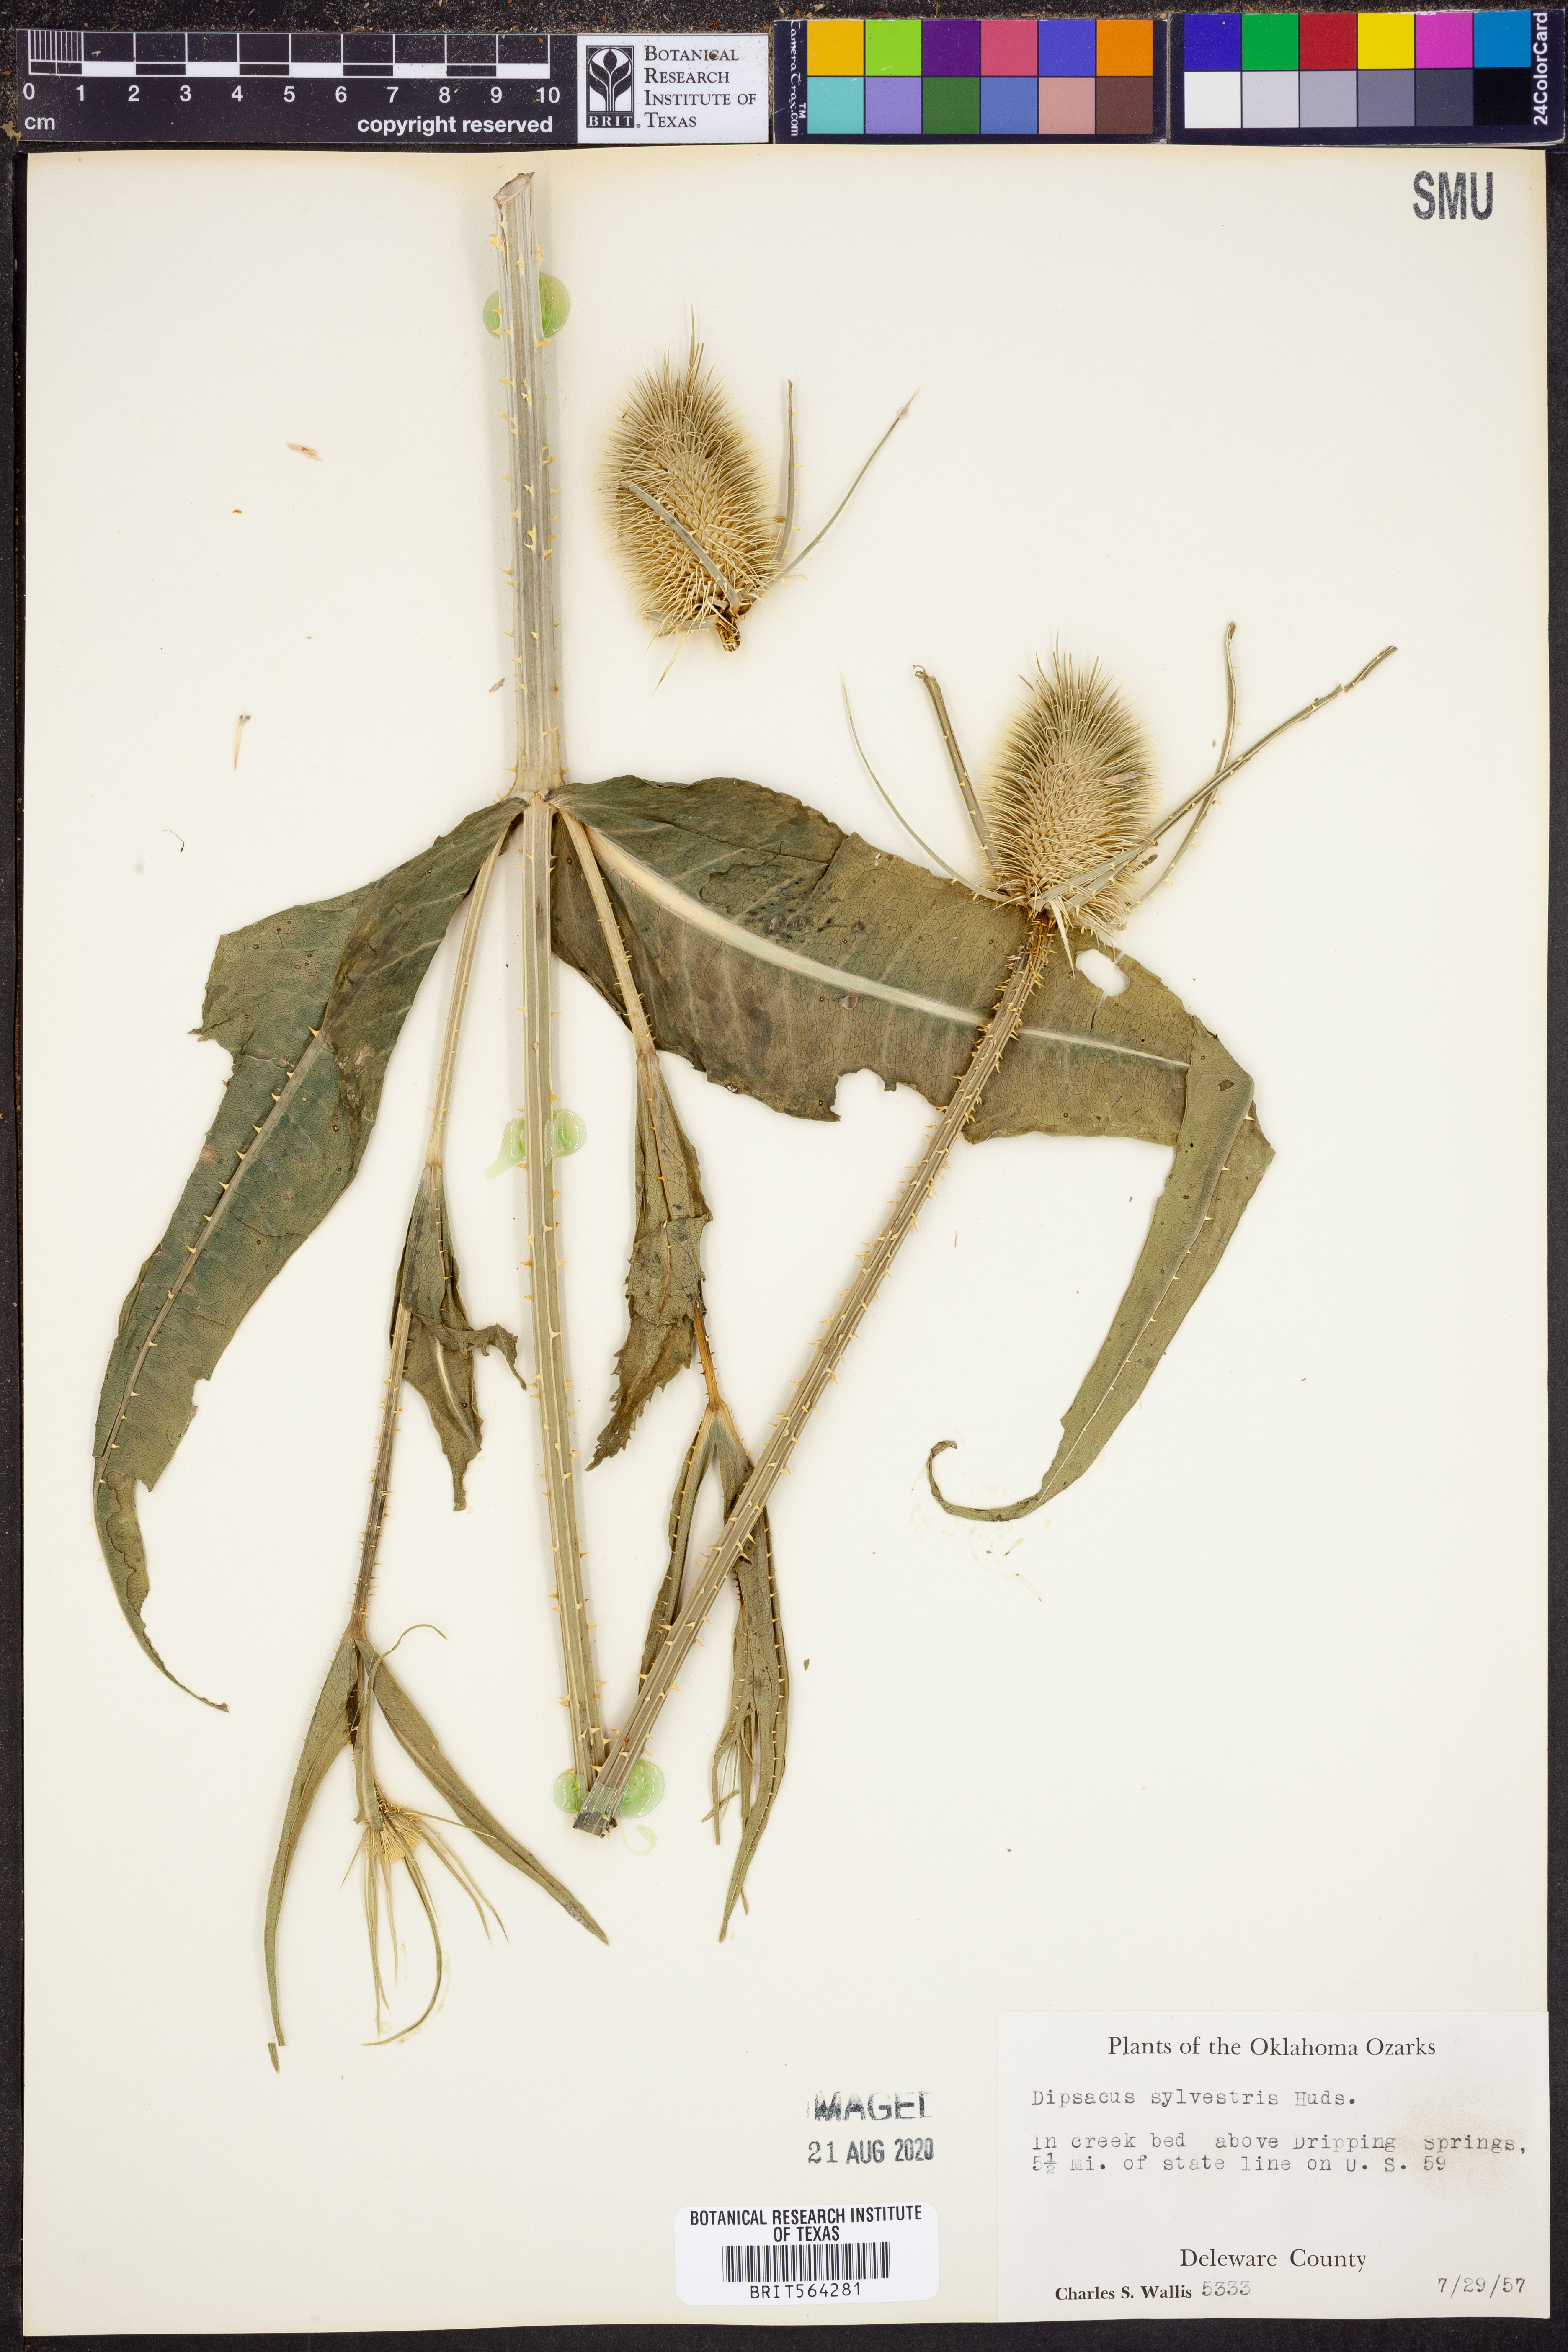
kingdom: Plantae
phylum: Tracheophyta
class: Magnoliopsida
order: Dipsacales
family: Caprifoliaceae
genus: Dipsacus
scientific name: Dipsacus fullonum
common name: Teasel
